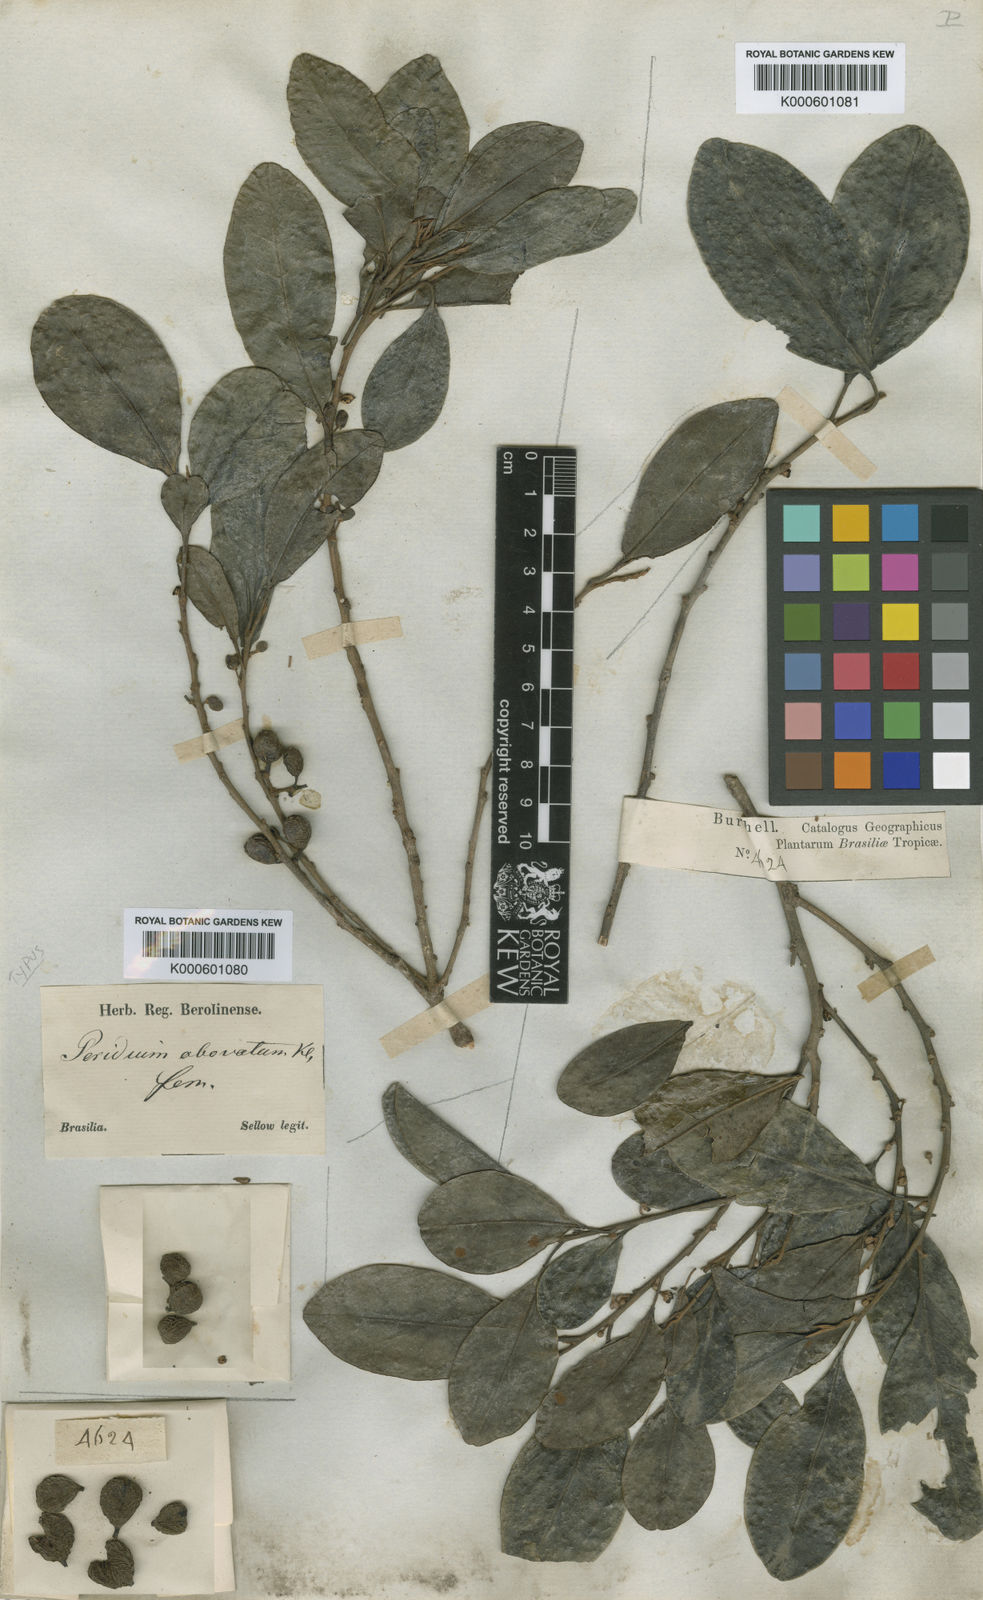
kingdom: Plantae
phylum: Tracheophyta
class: Magnoliopsida
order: Malpighiales
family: Peraceae
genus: Pera
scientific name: Pera glabrata
